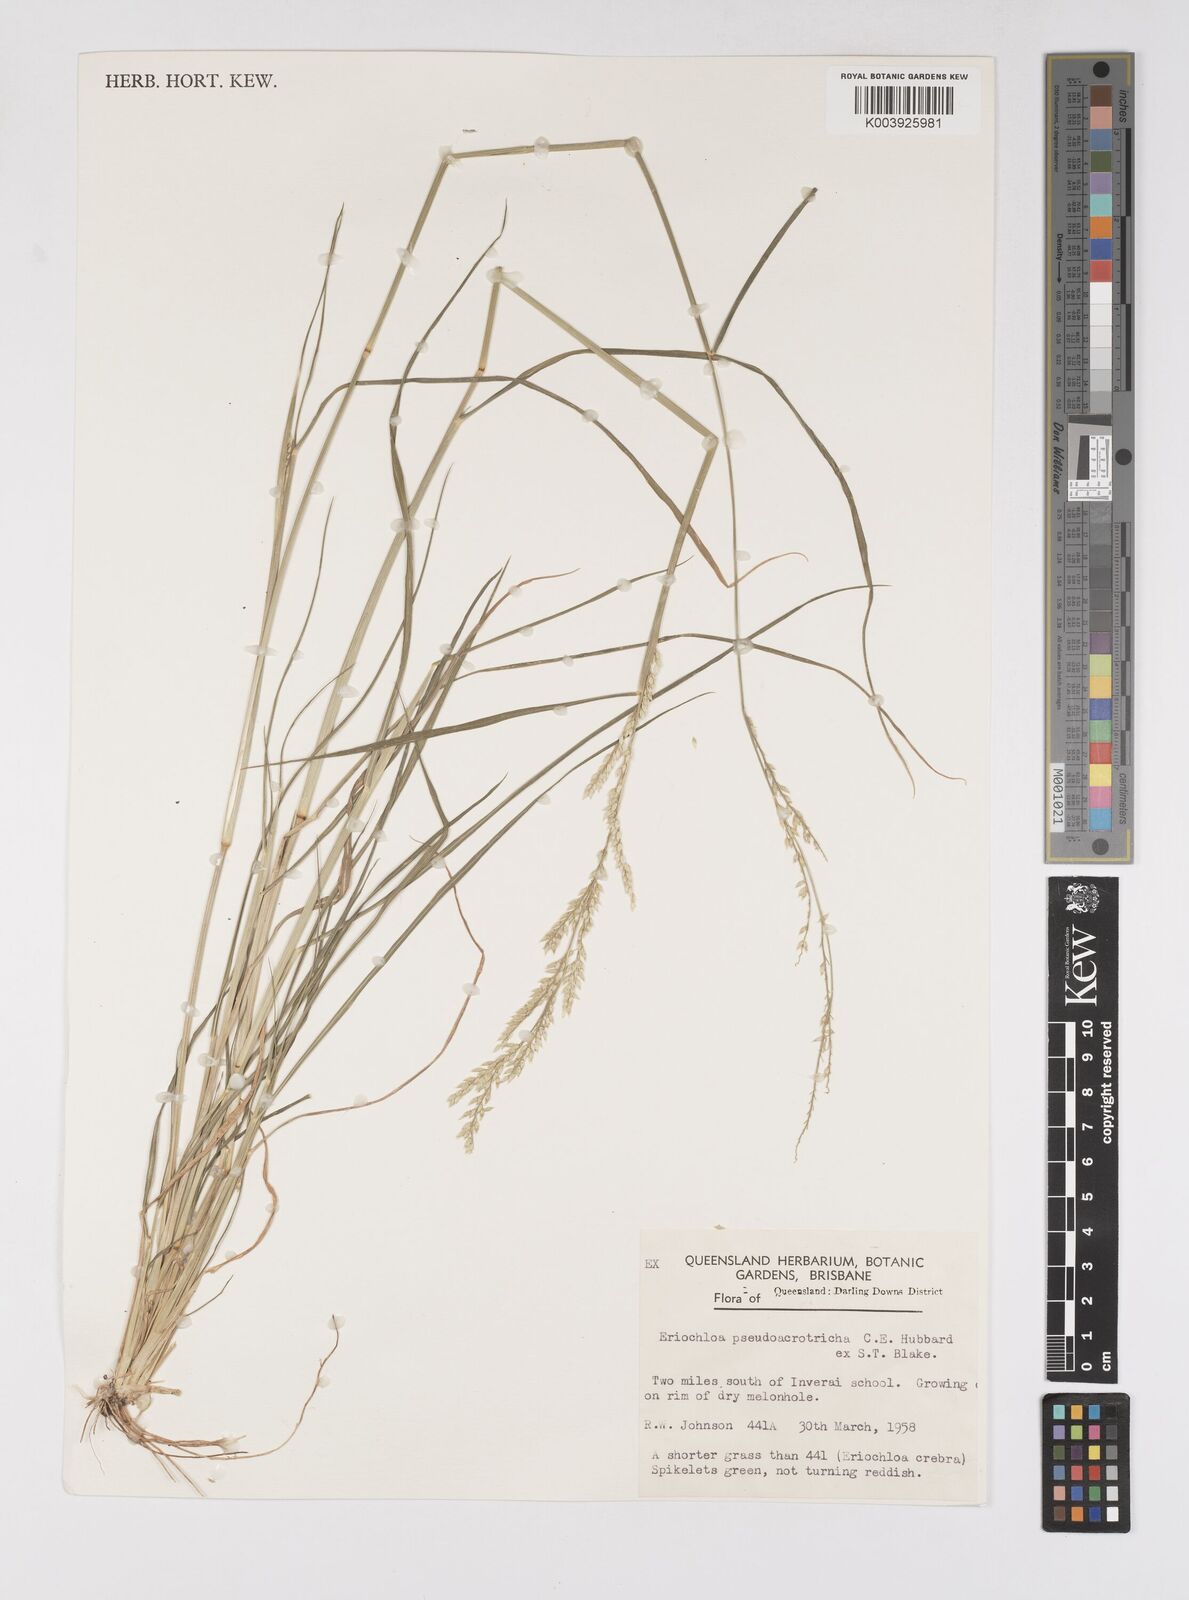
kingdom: Plantae
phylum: Tracheophyta
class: Liliopsida
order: Poales
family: Poaceae
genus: Eriochloa
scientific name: Eriochloa pseudoacrotricha
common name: Perennial cup-grass
